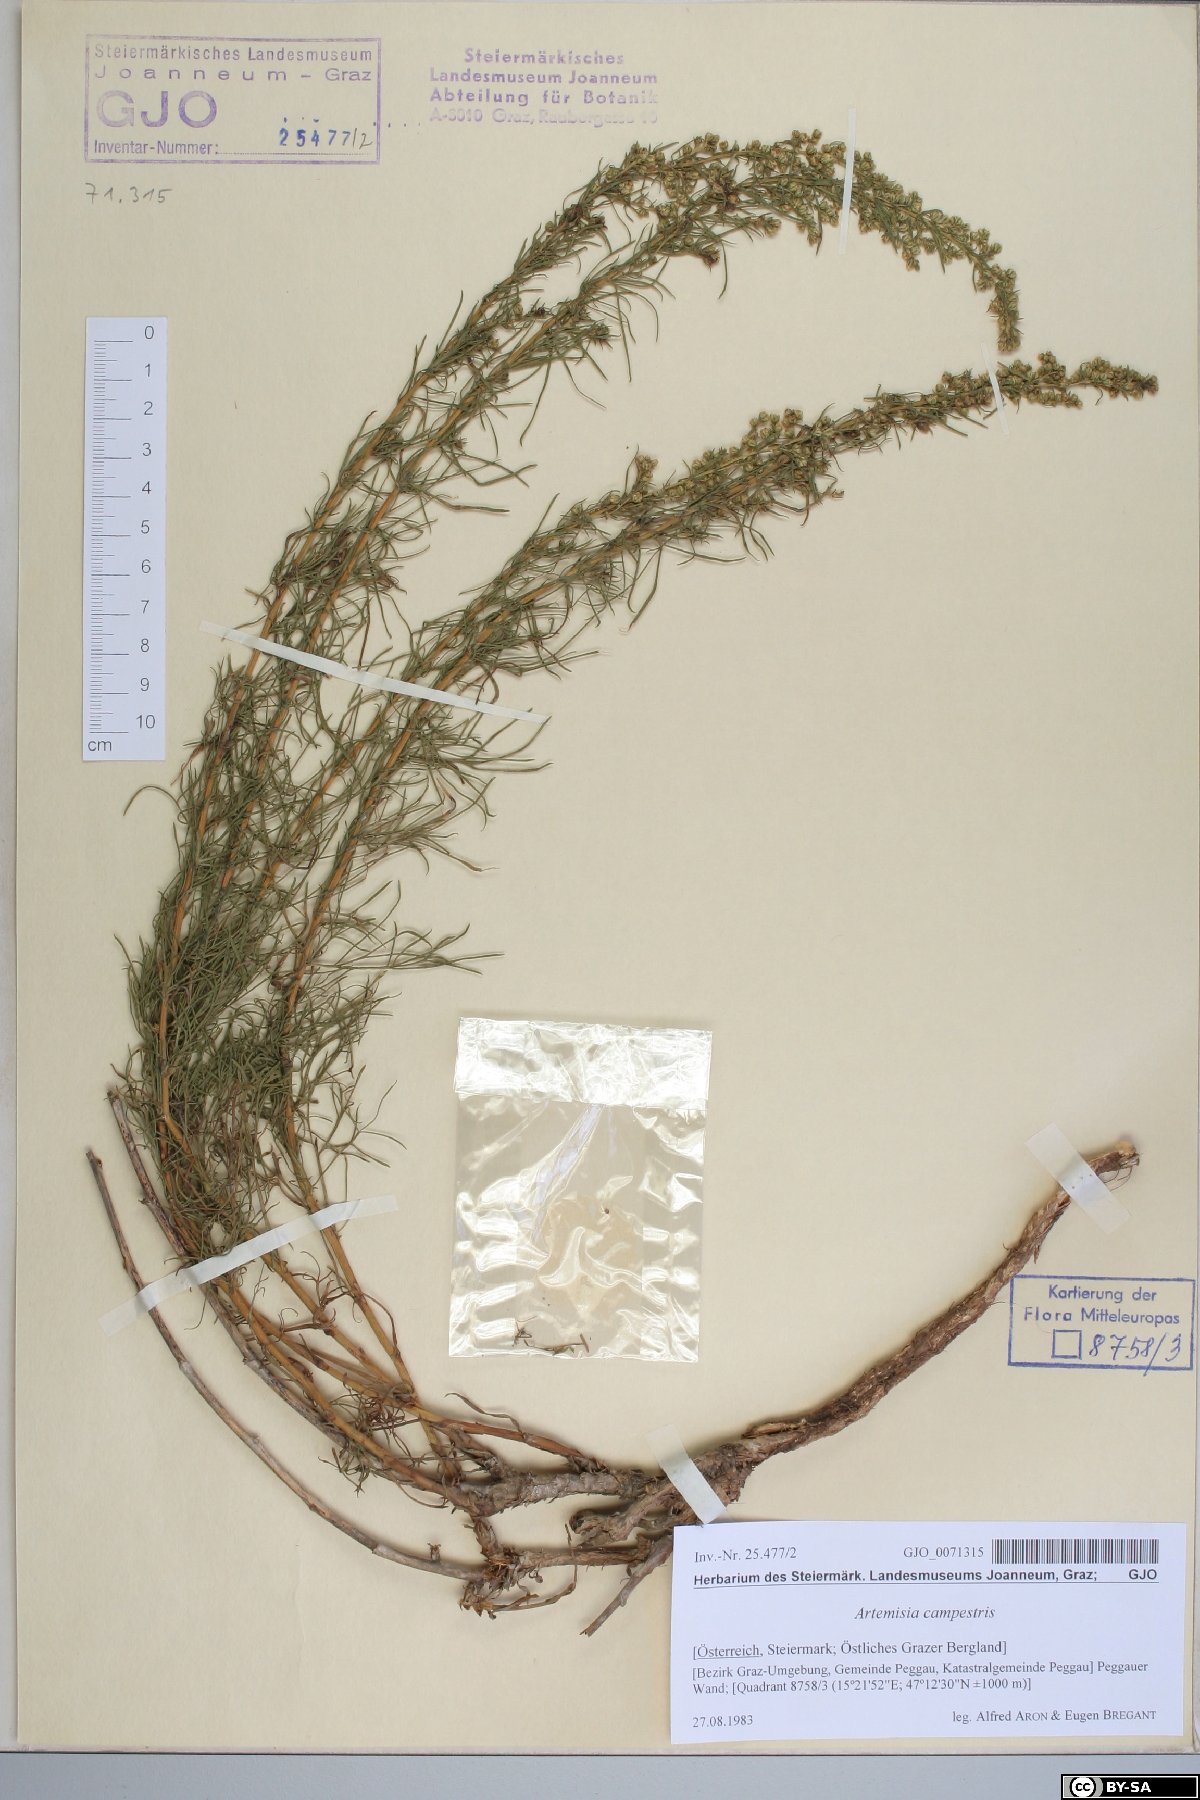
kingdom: Plantae
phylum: Tracheophyta
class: Magnoliopsida
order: Asterales
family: Asteraceae
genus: Artemisia
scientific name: Artemisia campestris
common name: Field wormwood
